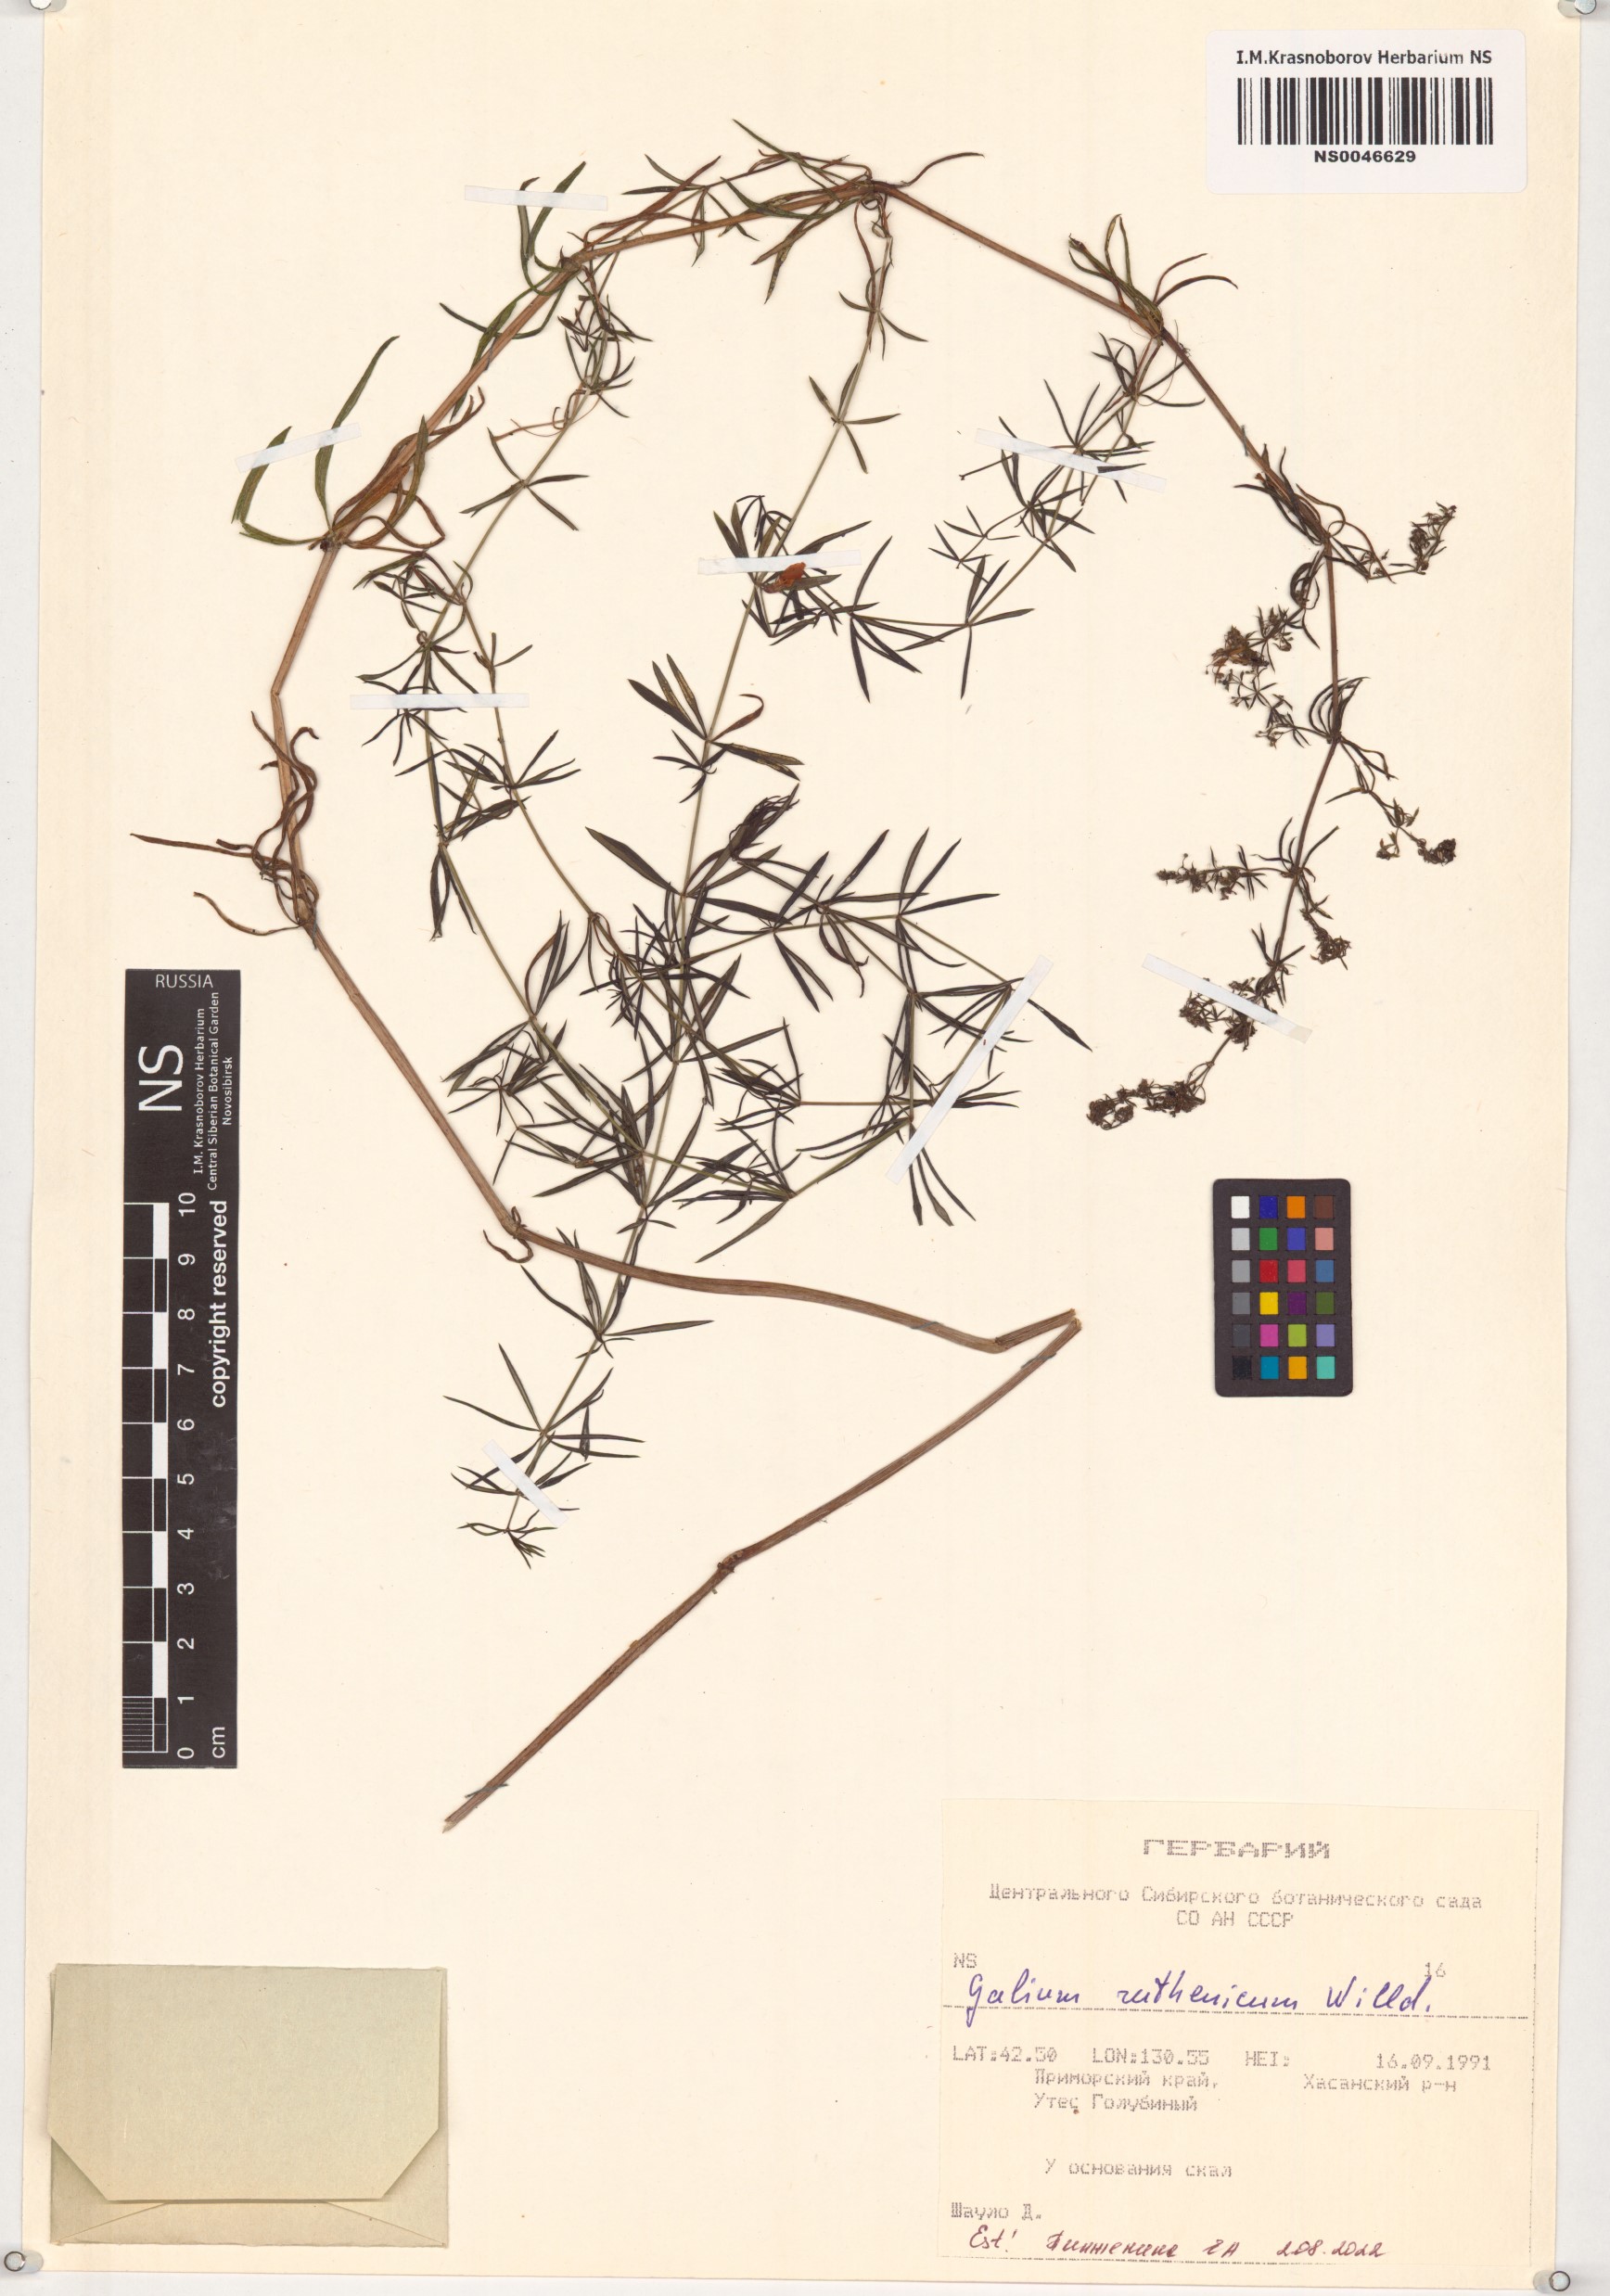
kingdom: Plantae
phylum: Tracheophyta
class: Magnoliopsida
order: Gentianales
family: Rubiaceae
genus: Galium
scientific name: Galium verum
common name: Lady's bedstraw
